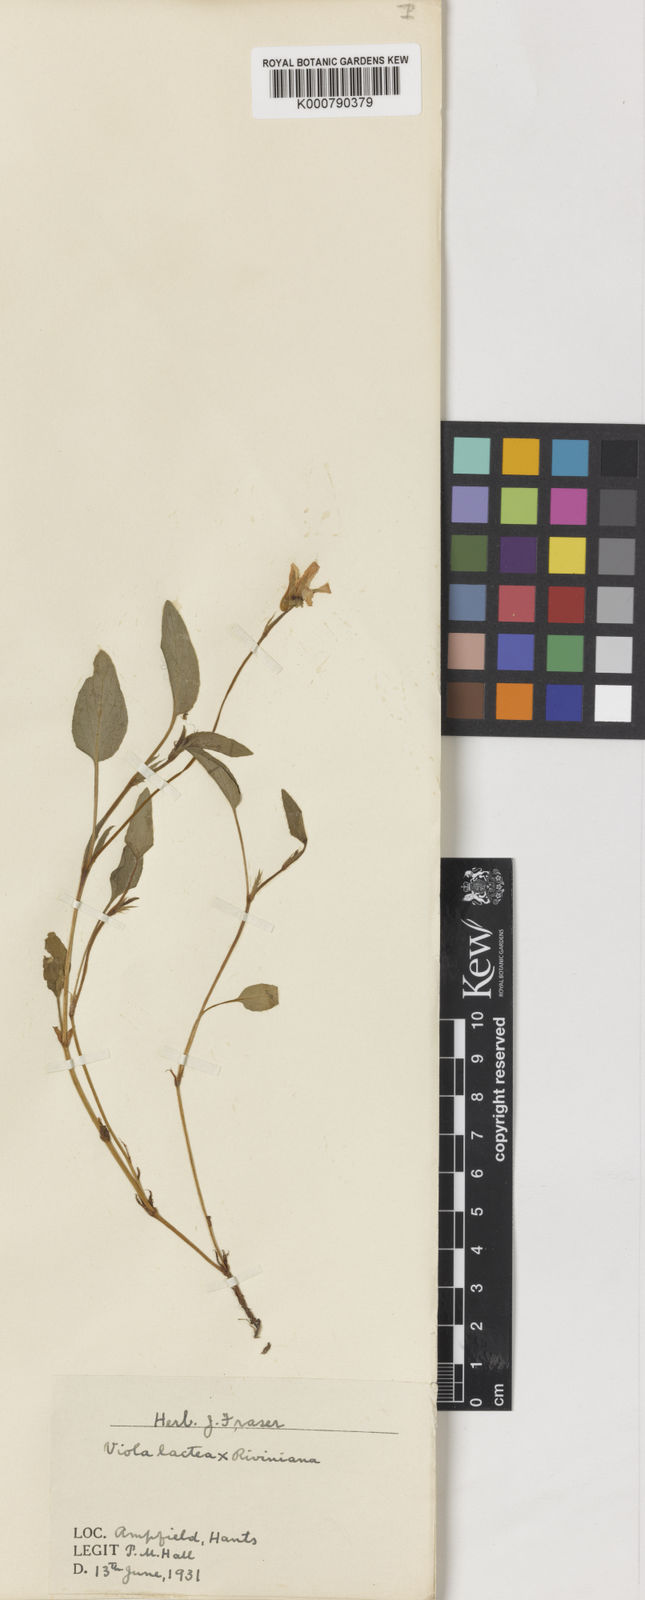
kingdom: Plantae
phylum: Tracheophyta
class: Magnoliopsida
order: Malpighiales
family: Violaceae
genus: Viola
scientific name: Viola lactea
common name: Pale dog-violet
